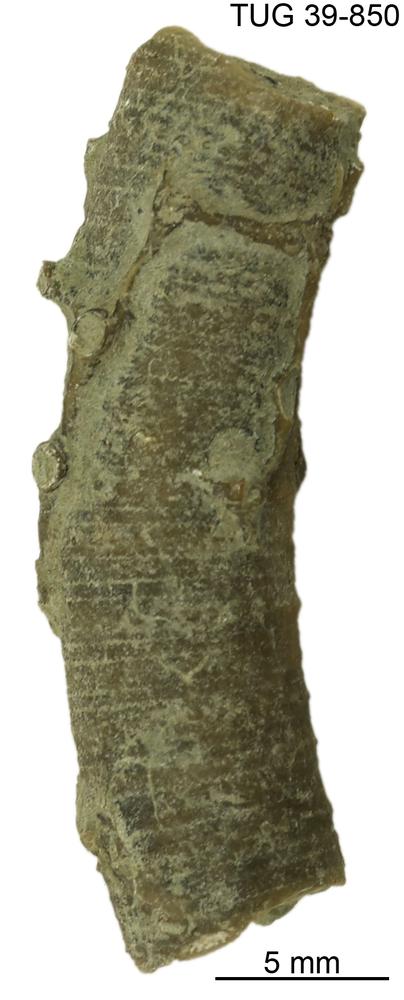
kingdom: Animalia
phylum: Echinodermata
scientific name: Echinodermata
